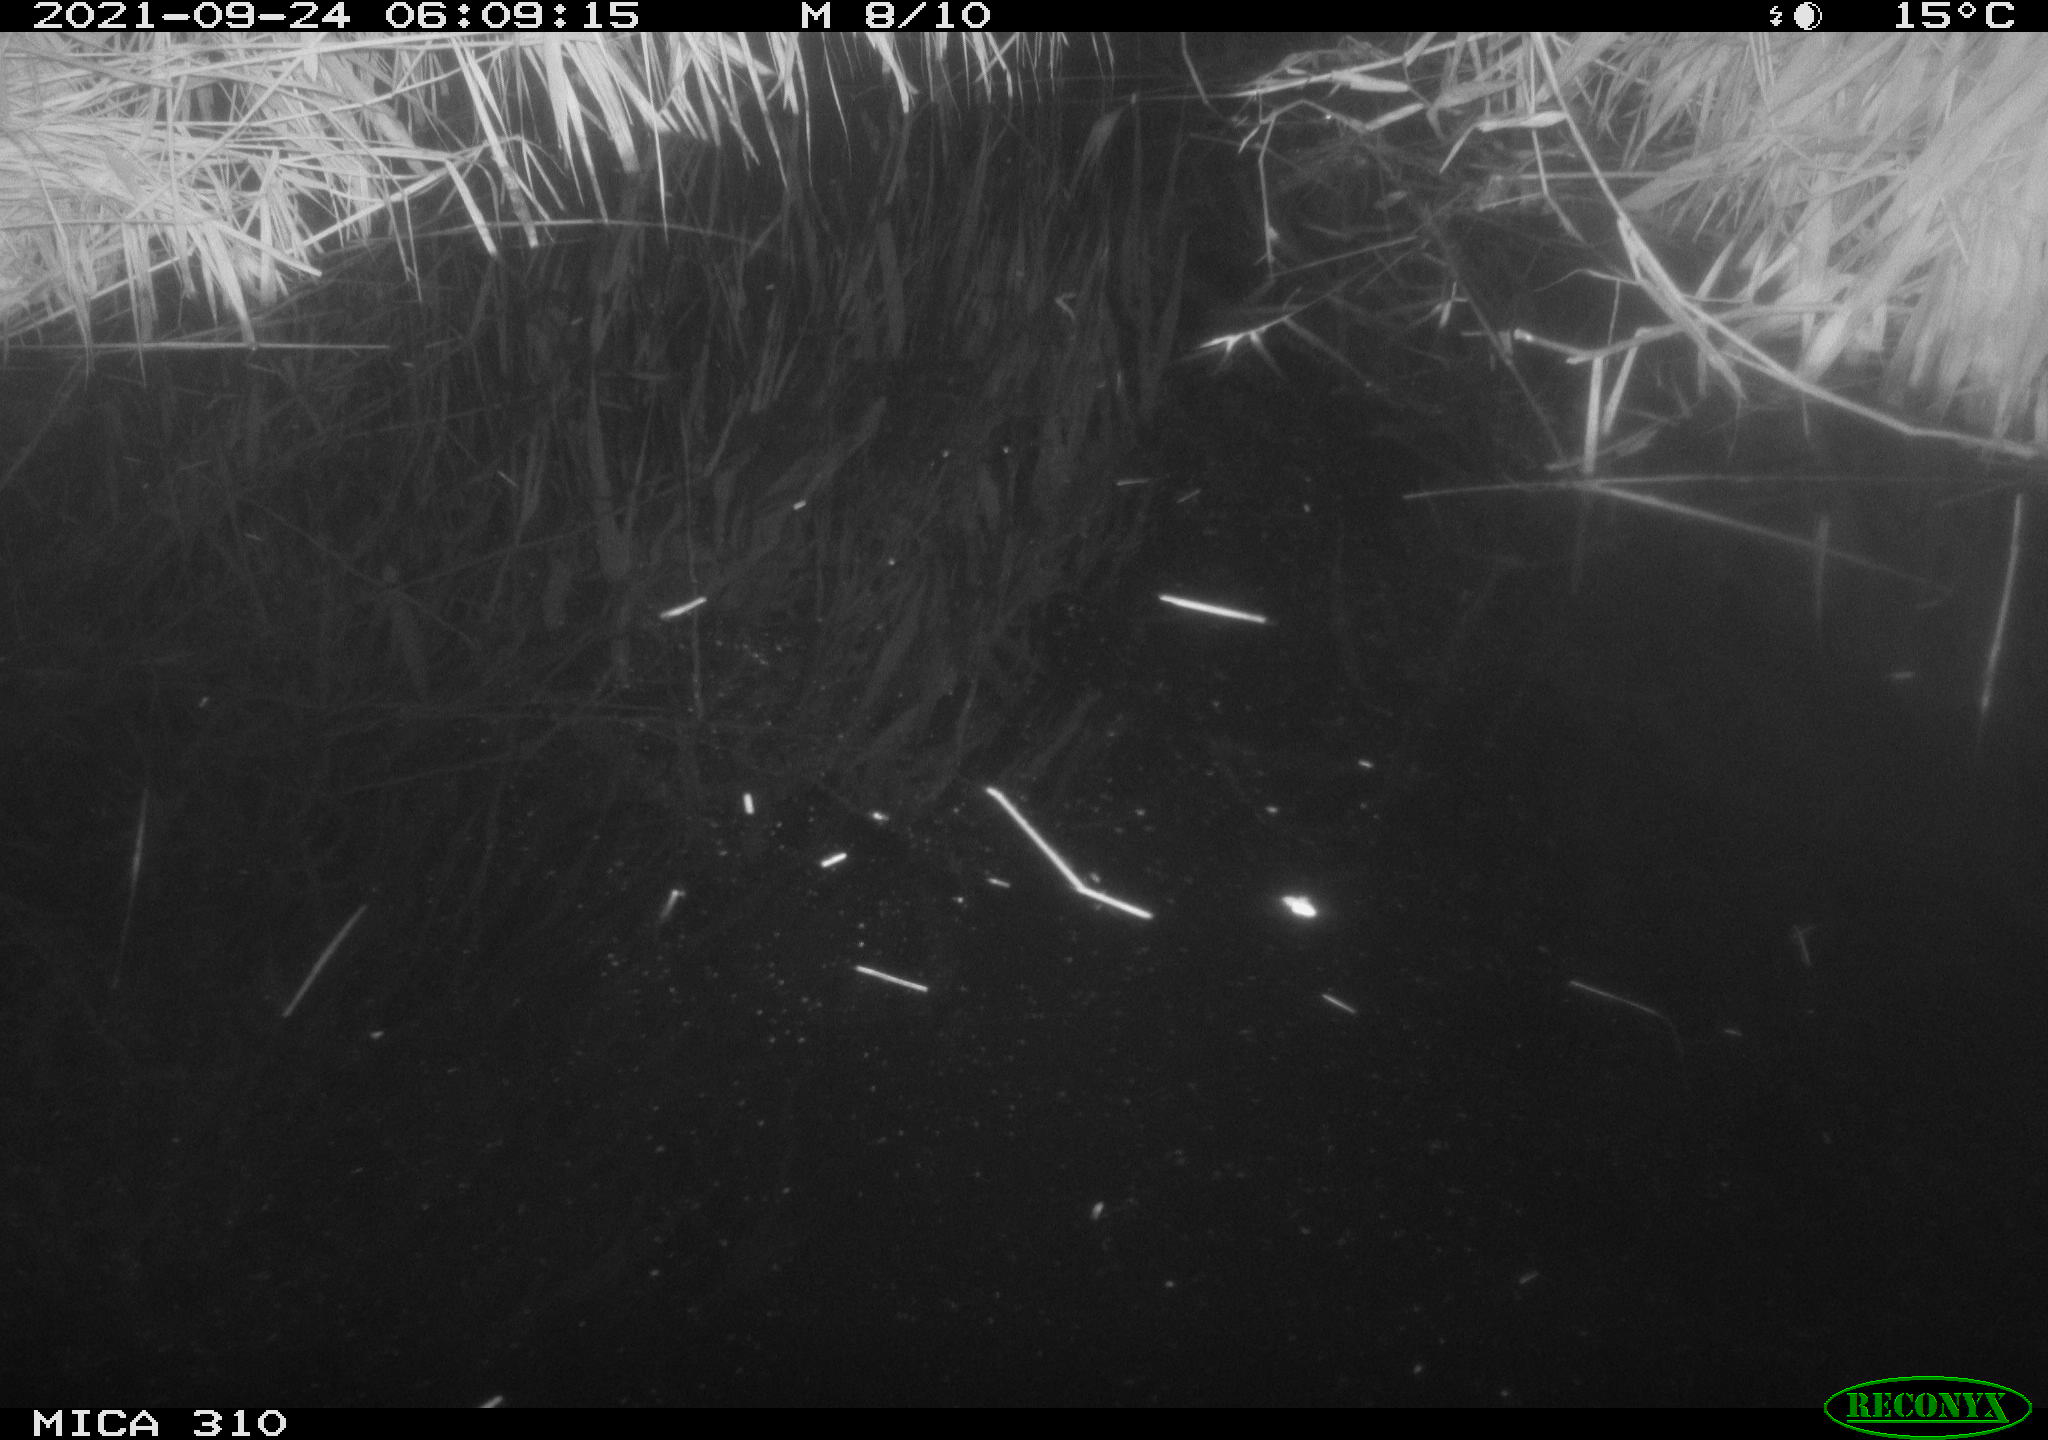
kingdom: Animalia
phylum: Chordata
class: Mammalia
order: Rodentia
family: Cricetidae
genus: Ondatra
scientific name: Ondatra zibethicus
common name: Muskrat
